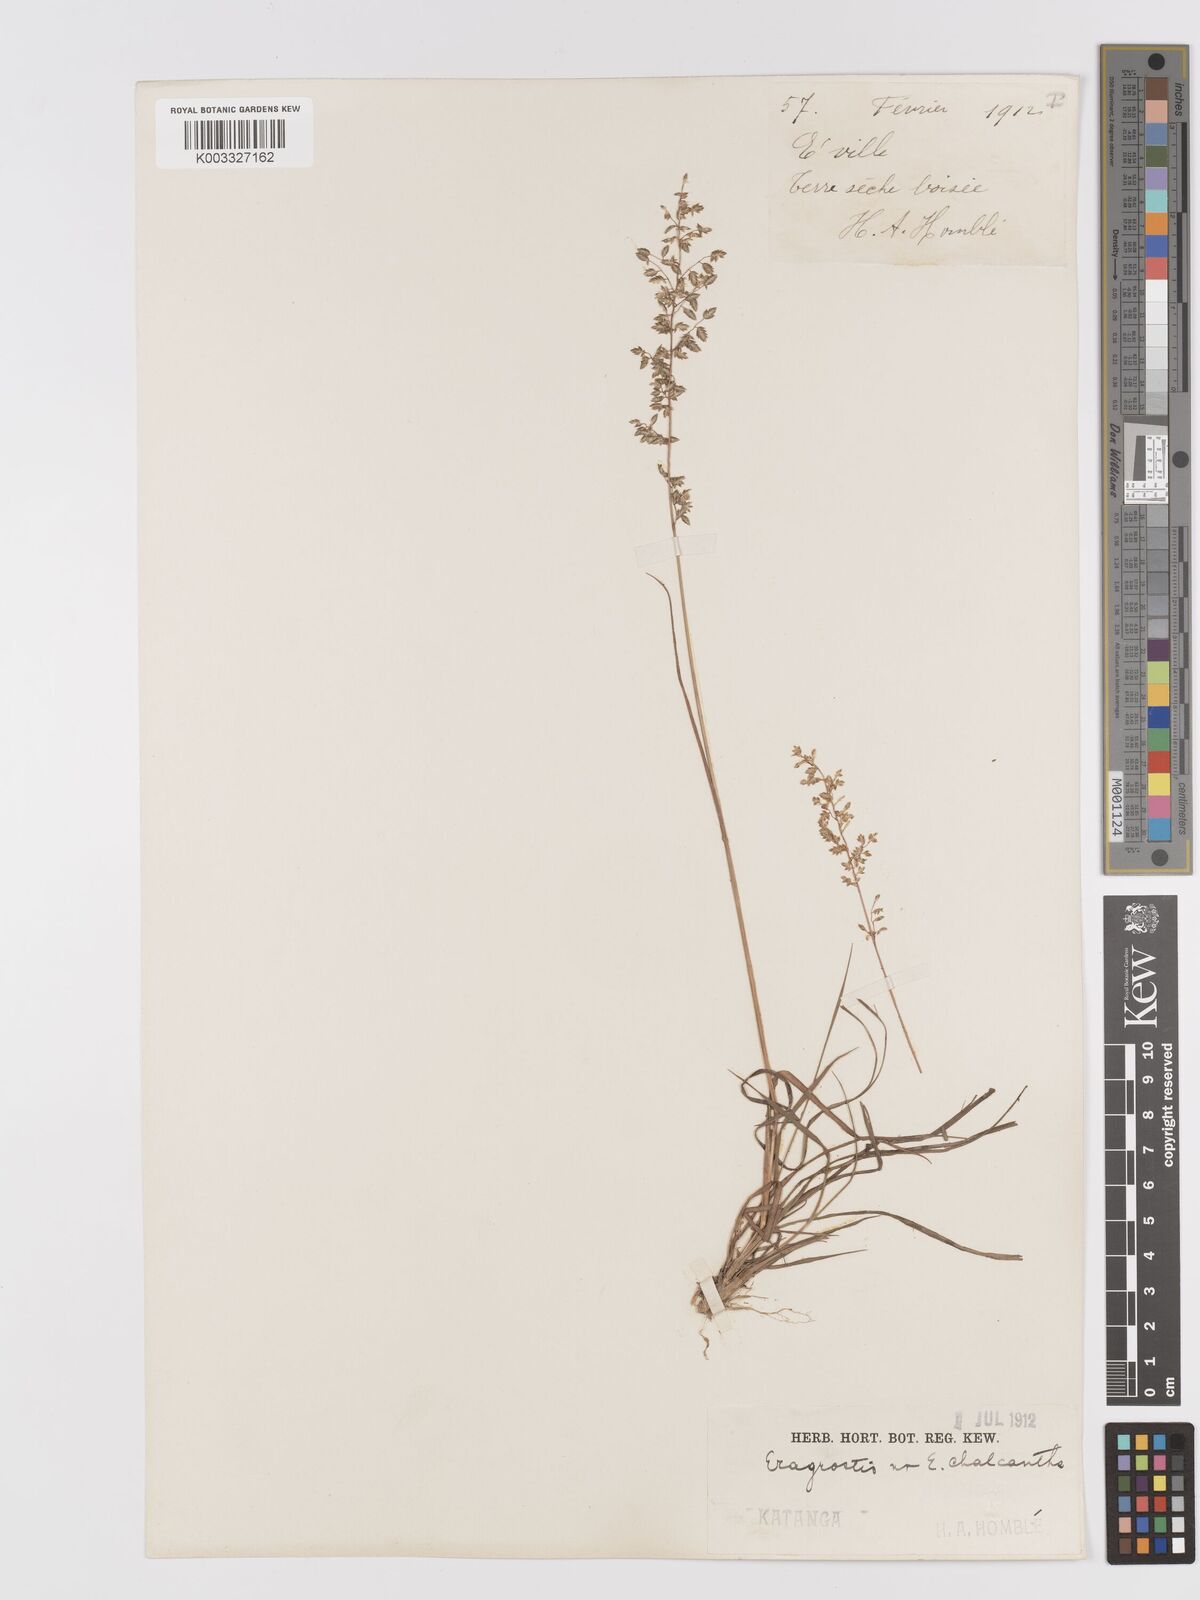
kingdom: Plantae
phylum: Tracheophyta
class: Liliopsida
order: Poales
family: Poaceae
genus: Eragrostis
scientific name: Eragrostis racemosa
